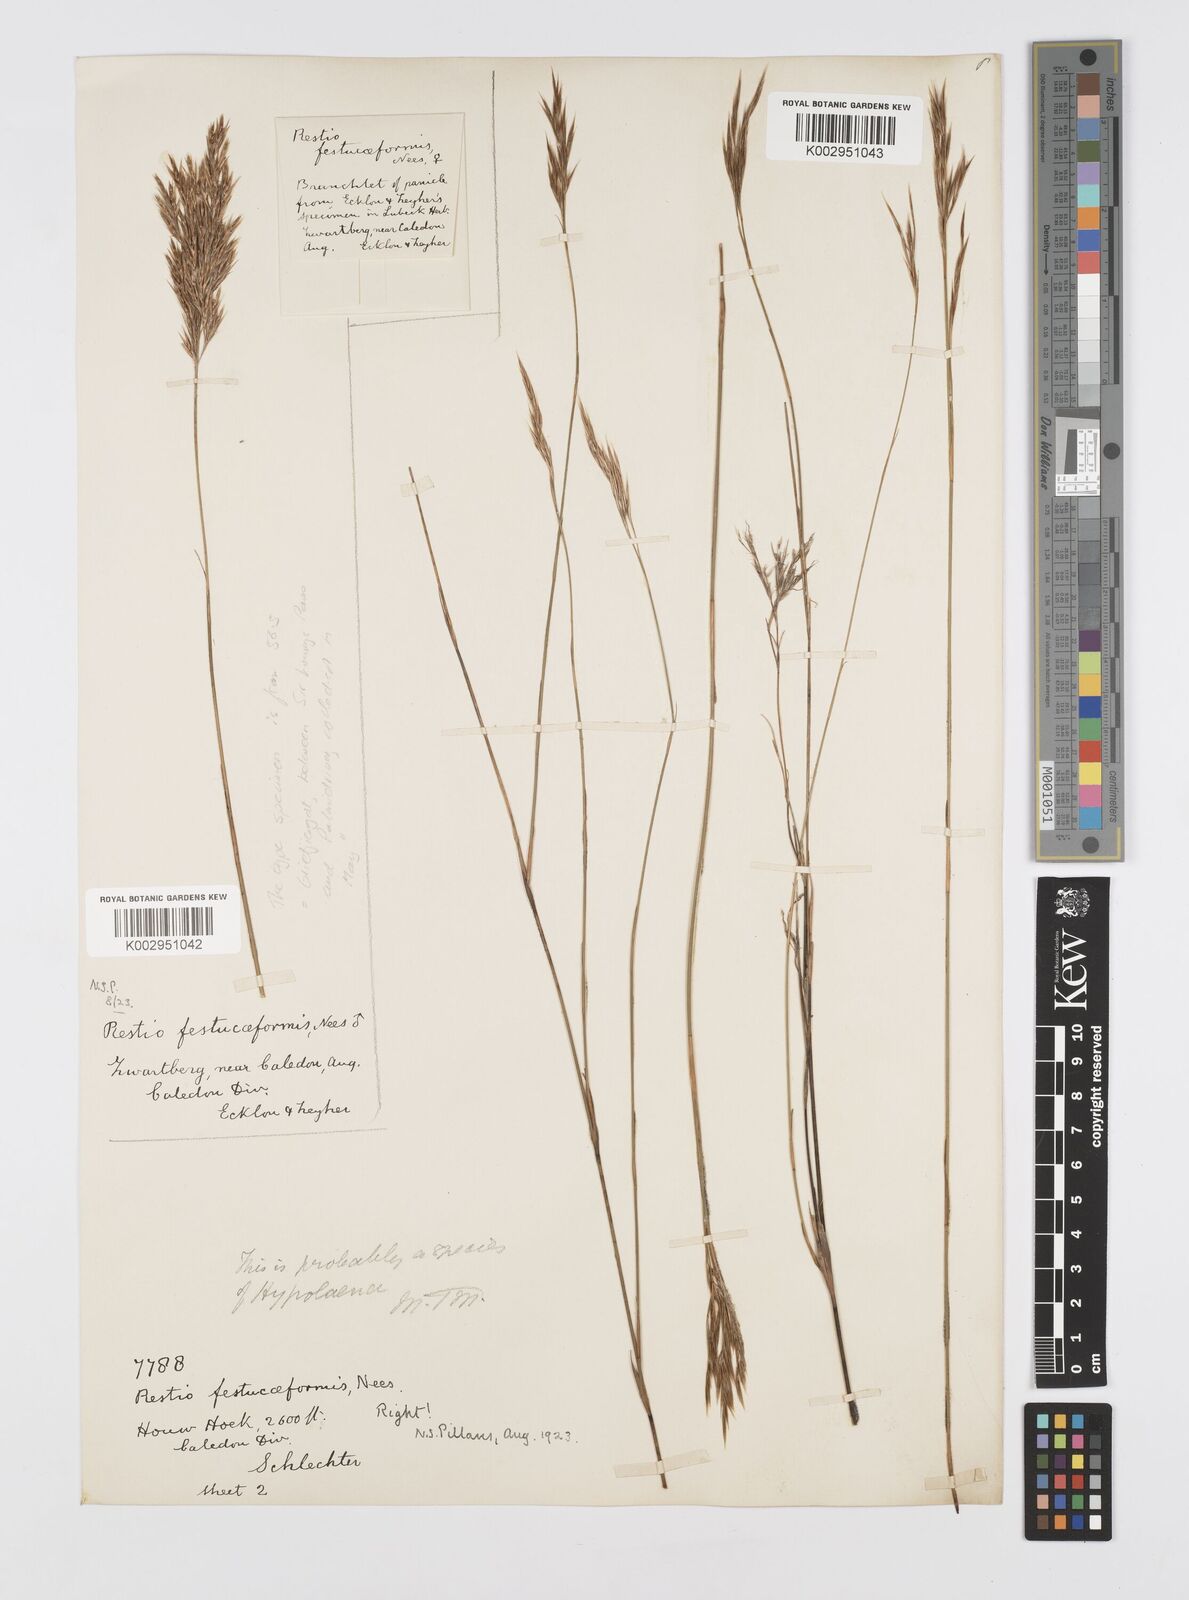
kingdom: Plantae
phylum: Tracheophyta
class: Liliopsida
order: Poales
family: Restionaceae
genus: Restio
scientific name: Restio festuciformis
